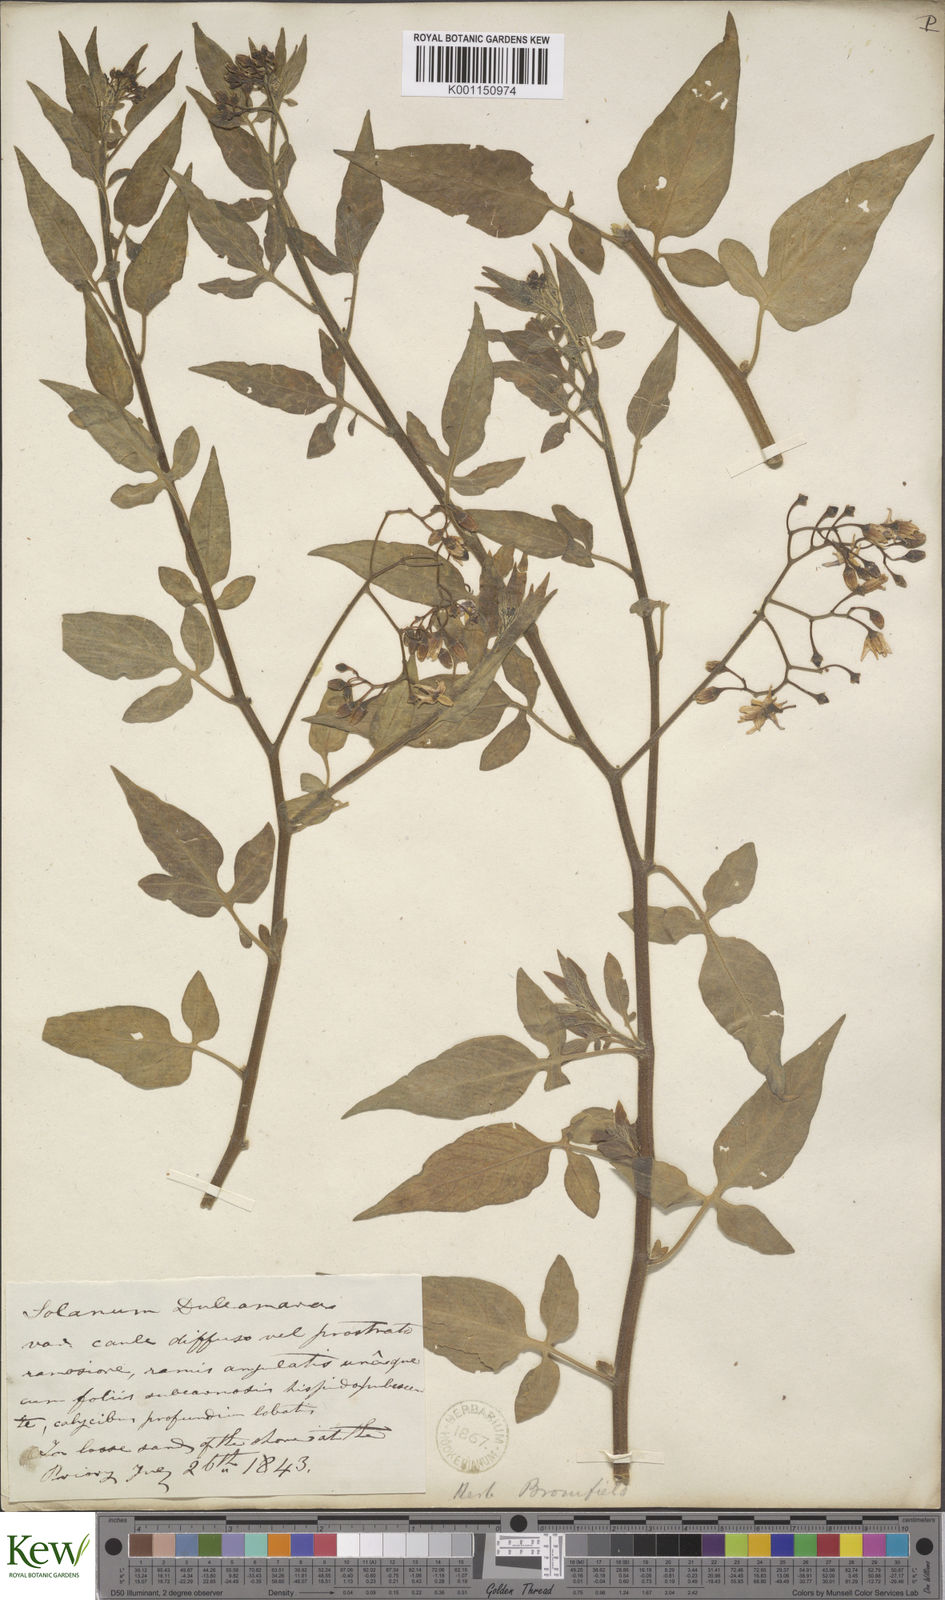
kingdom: Plantae
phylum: Tracheophyta
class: Magnoliopsida
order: Solanales
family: Solanaceae
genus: Solanum
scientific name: Solanum dulcamara
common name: Climbing nightshade
